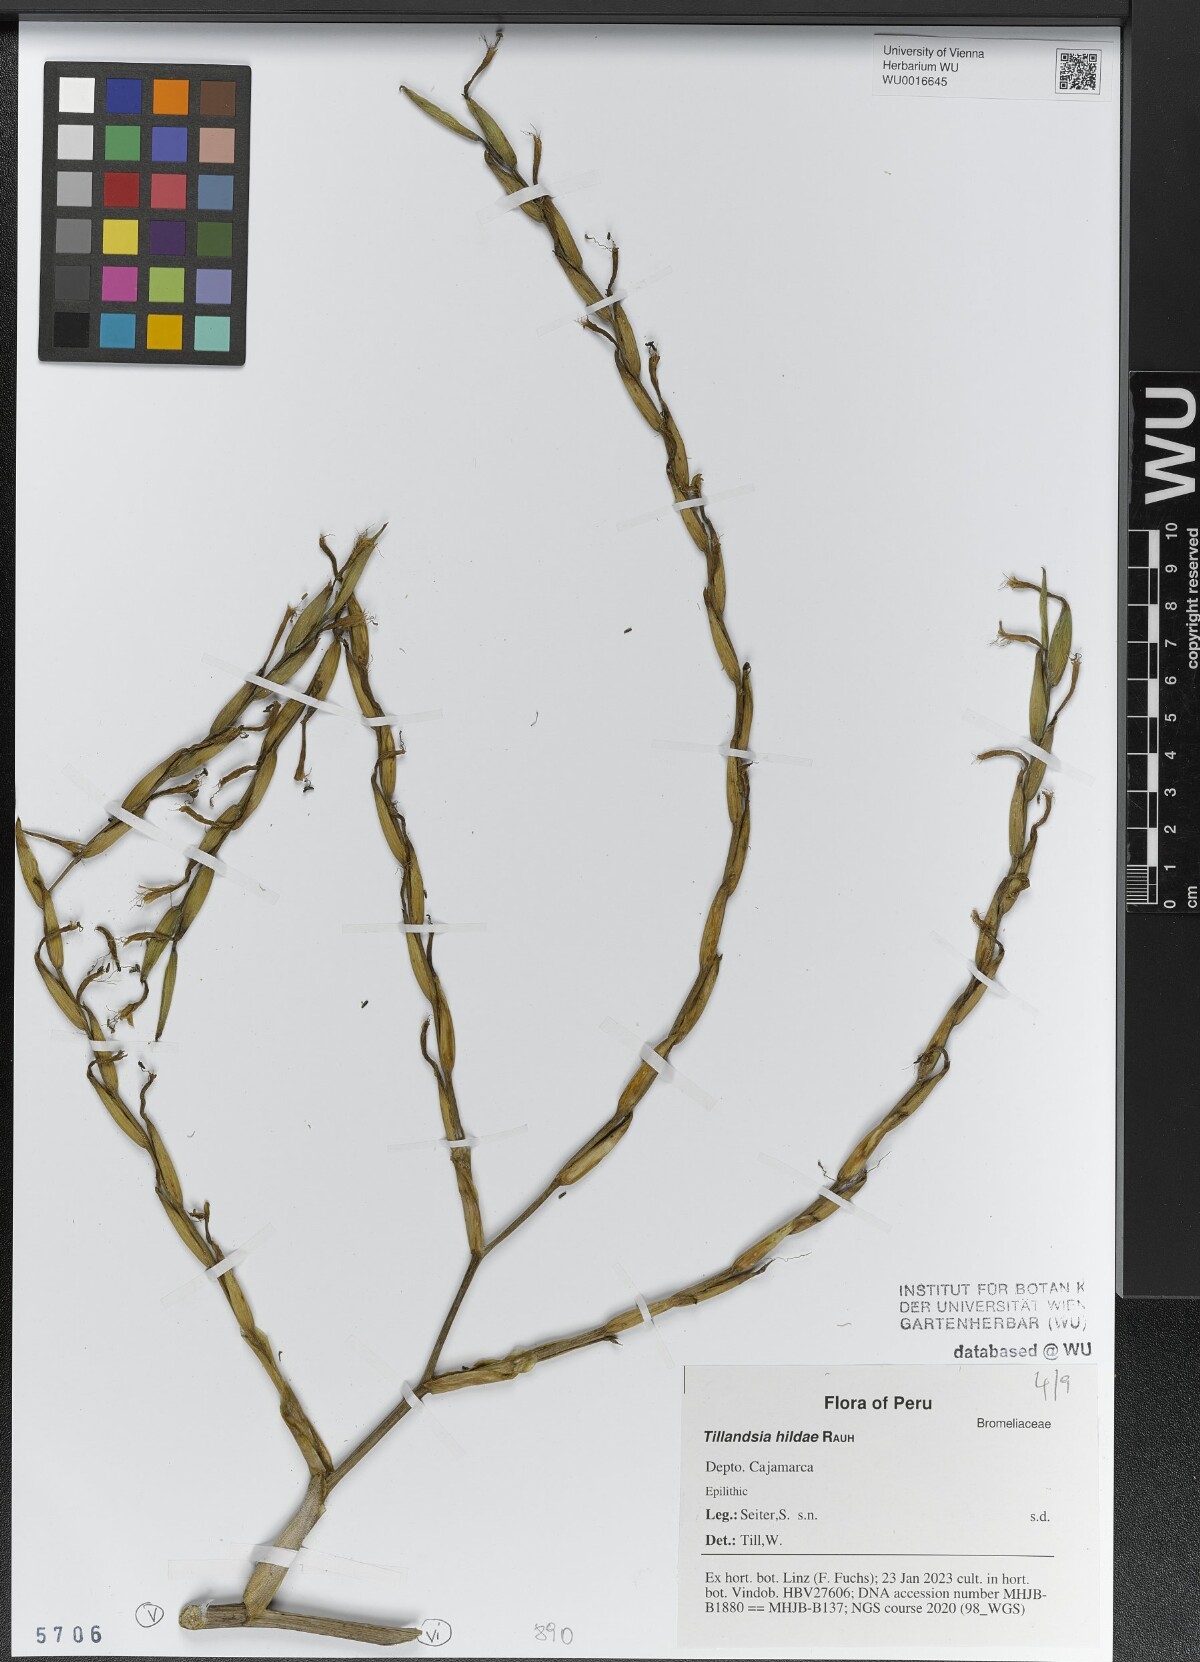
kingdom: Plantae
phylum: Tracheophyta
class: Liliopsida
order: Poales
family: Bromeliaceae
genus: Tillandsia
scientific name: Tillandsia hildae
